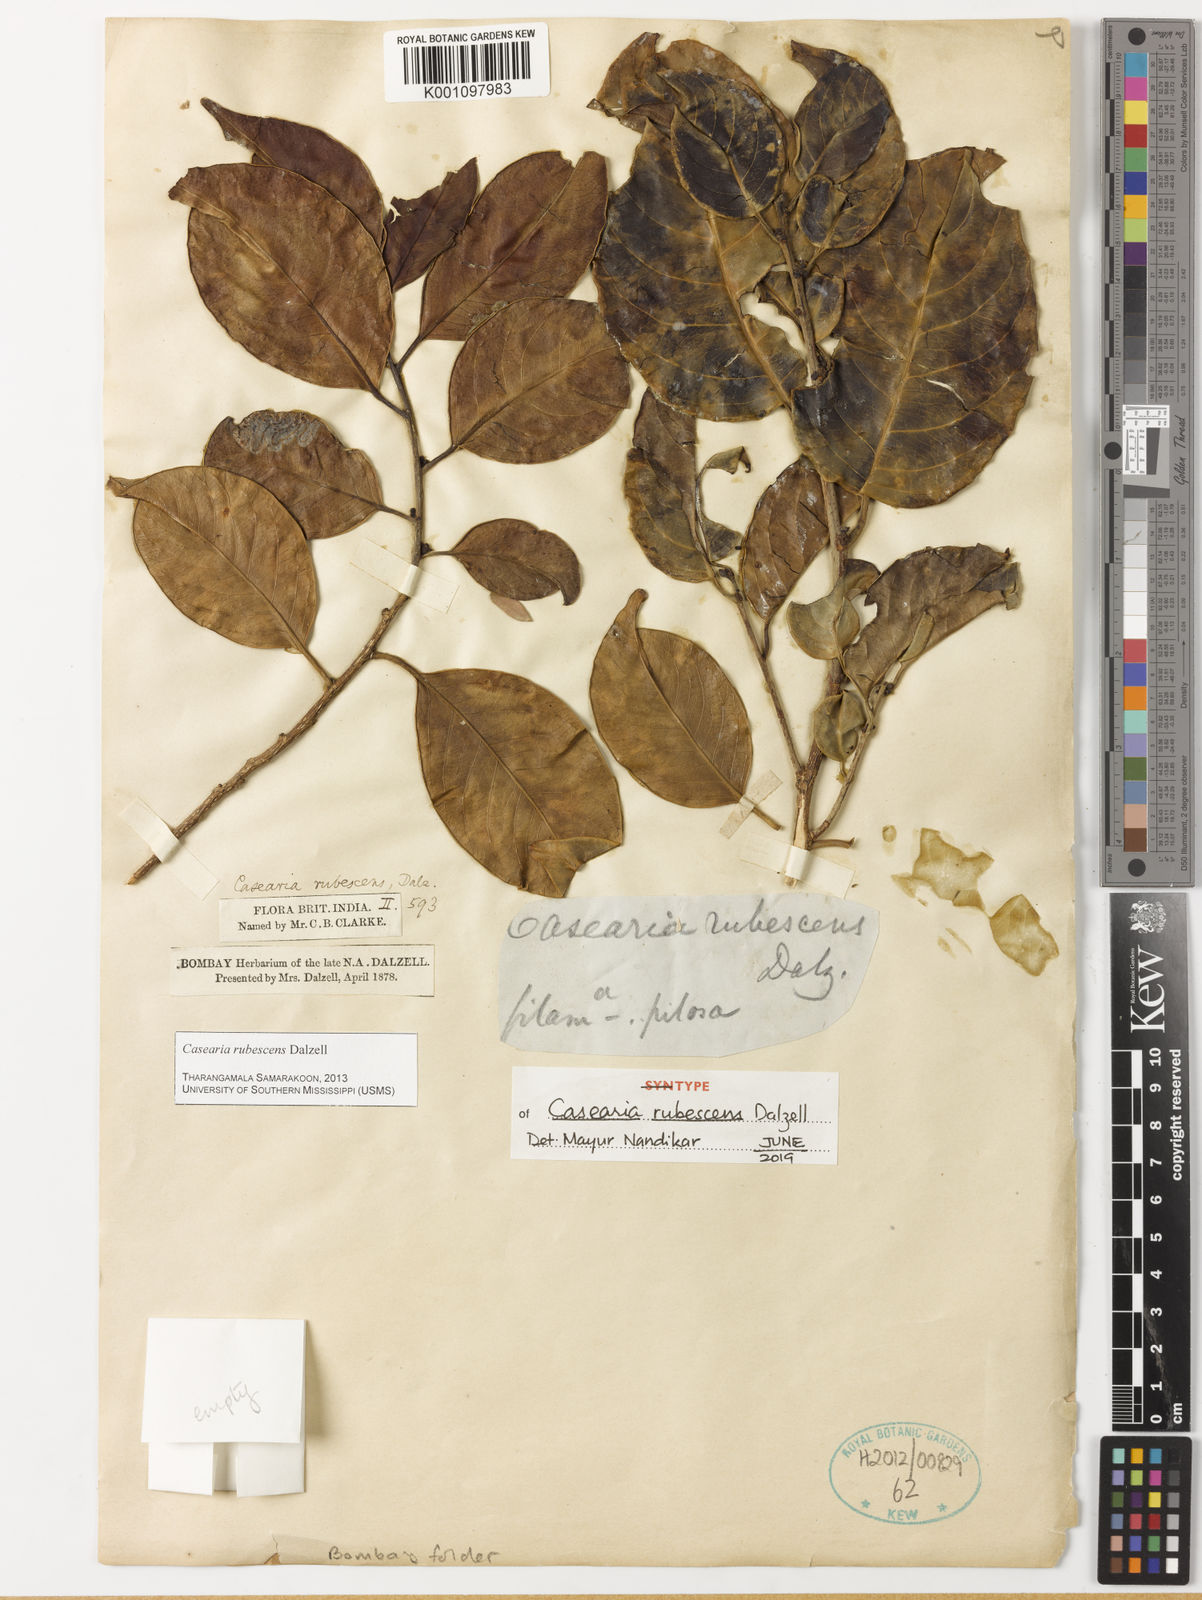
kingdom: Plantae
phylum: Tracheophyta
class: Magnoliopsida
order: Malpighiales
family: Salicaceae
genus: Casearia
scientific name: Casearia rubescens
